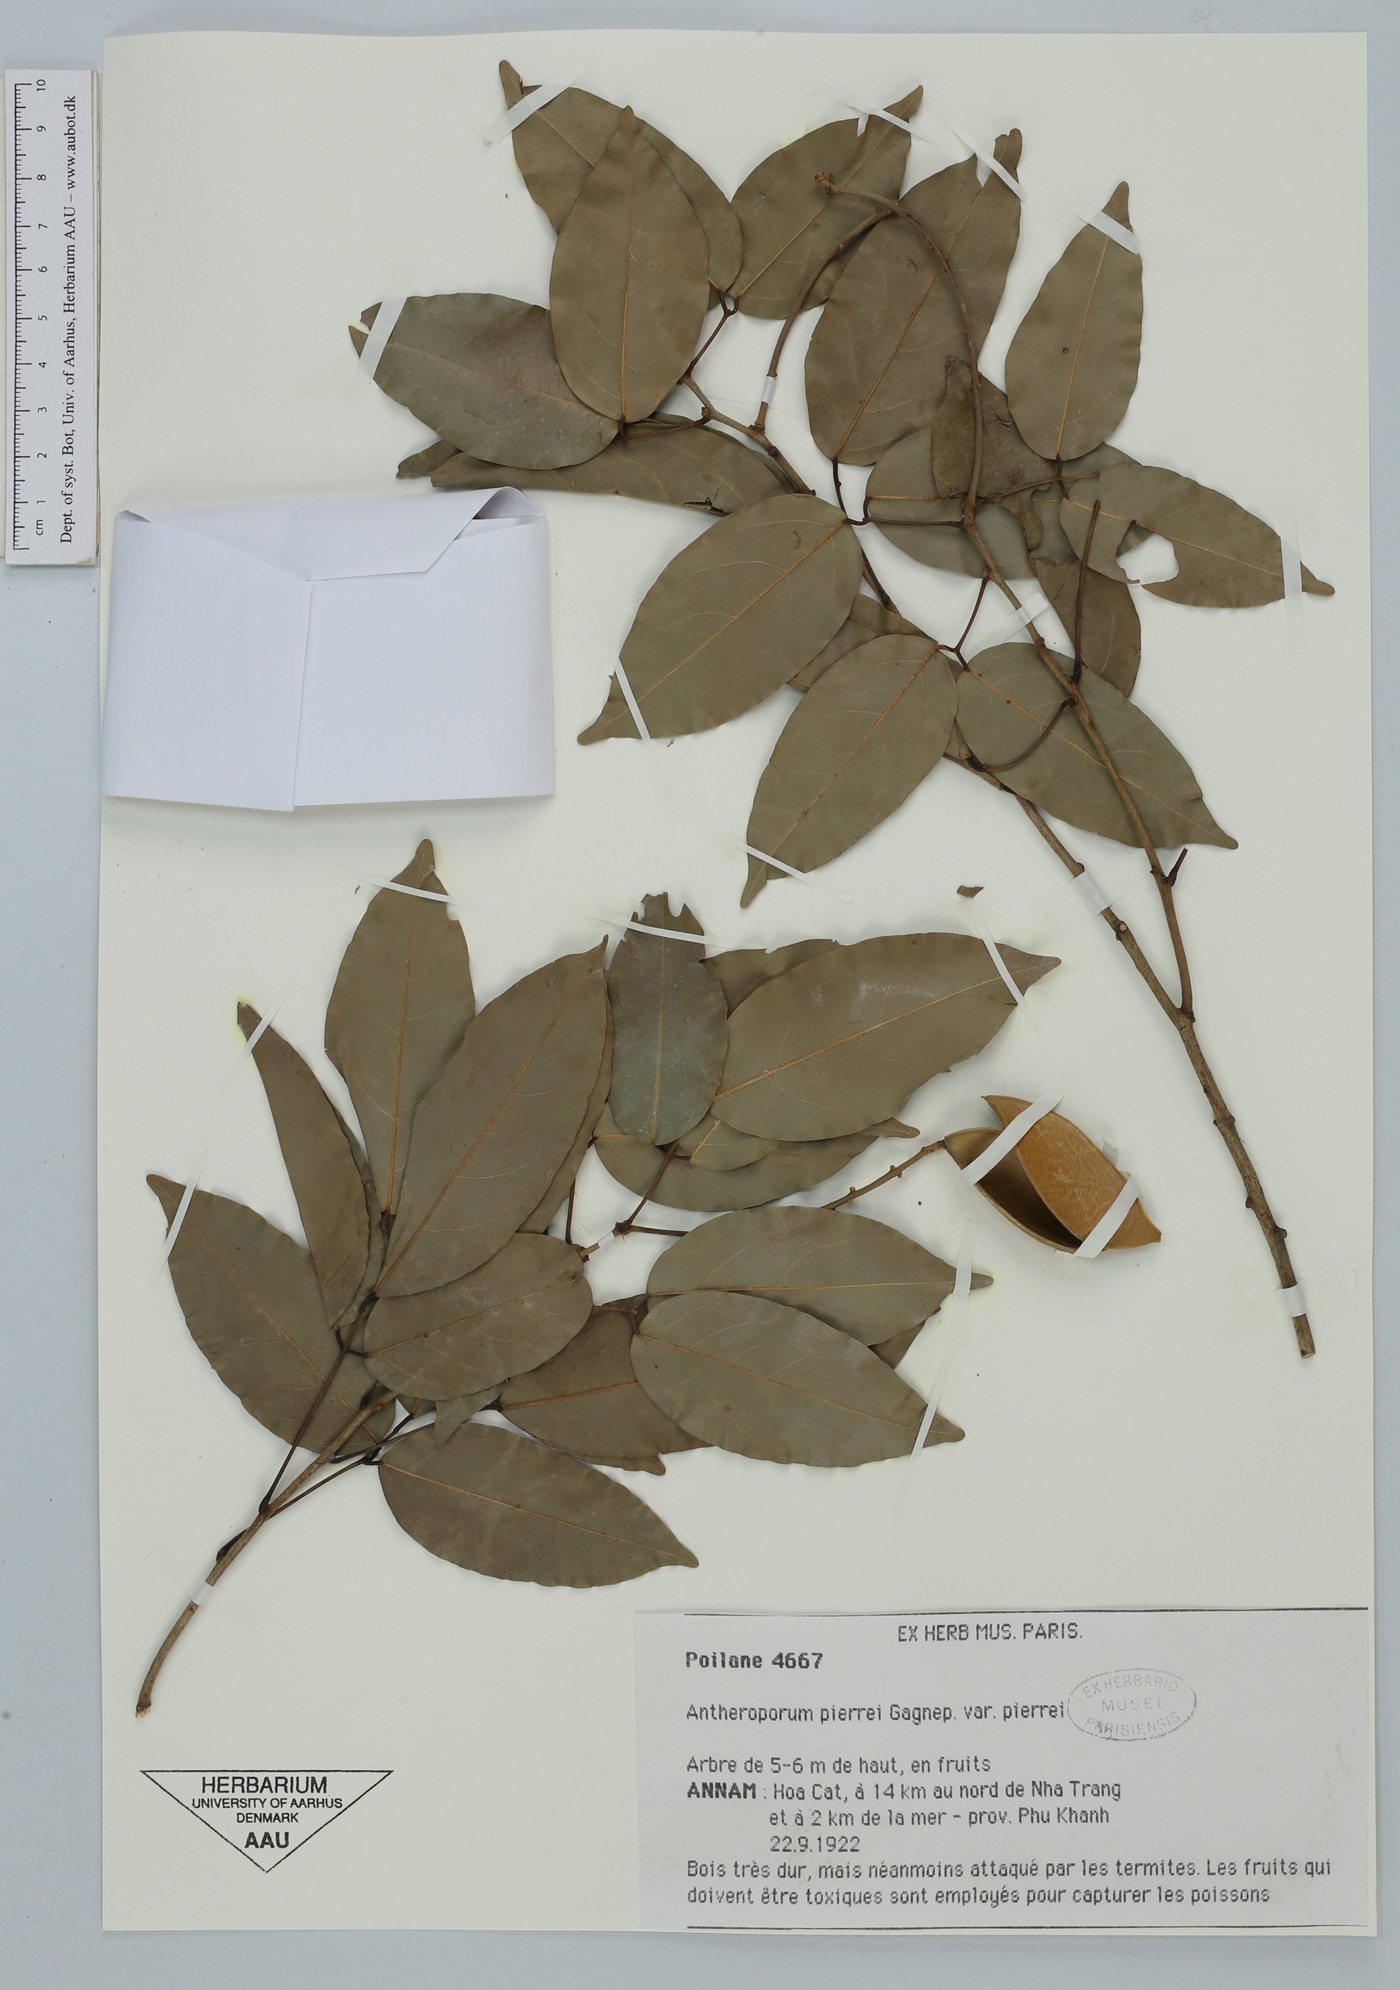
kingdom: Plantae
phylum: Tracheophyta
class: Magnoliopsida
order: Fabales
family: Fabaceae
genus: Antheroporum
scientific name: Antheroporum pierrei
